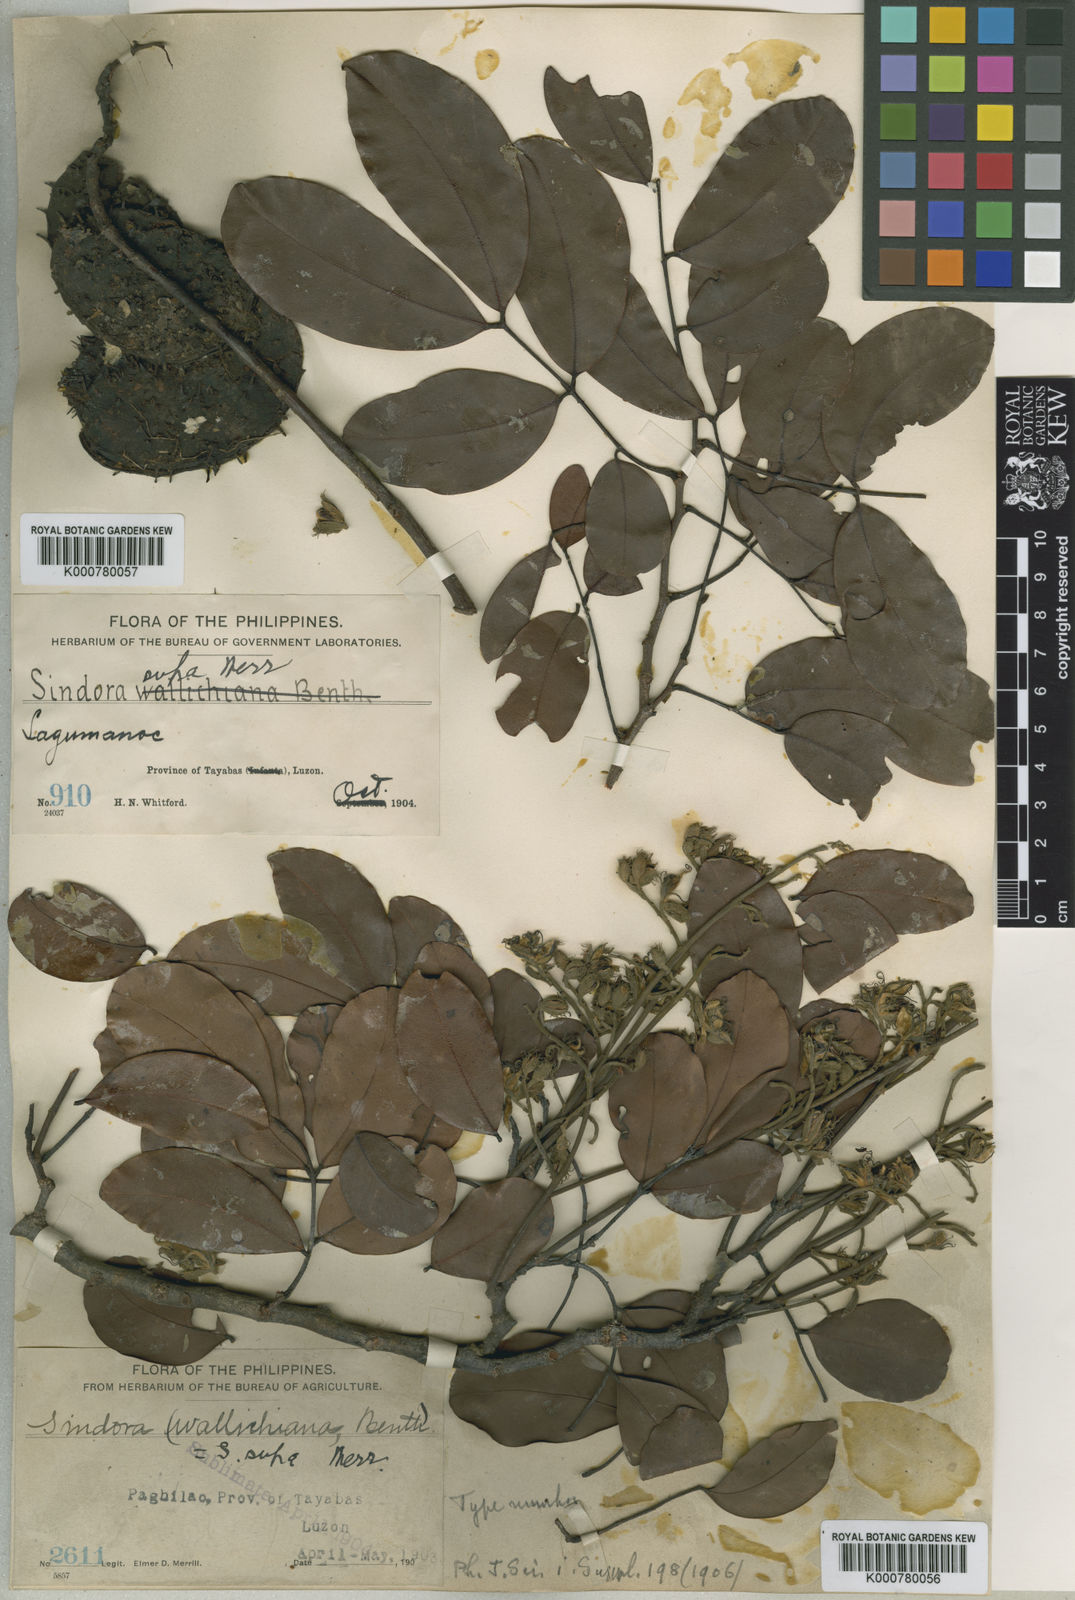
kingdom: Plantae
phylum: Tracheophyta
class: Magnoliopsida
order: Fabales
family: Fabaceae
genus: Sindora
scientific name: Sindora supa
